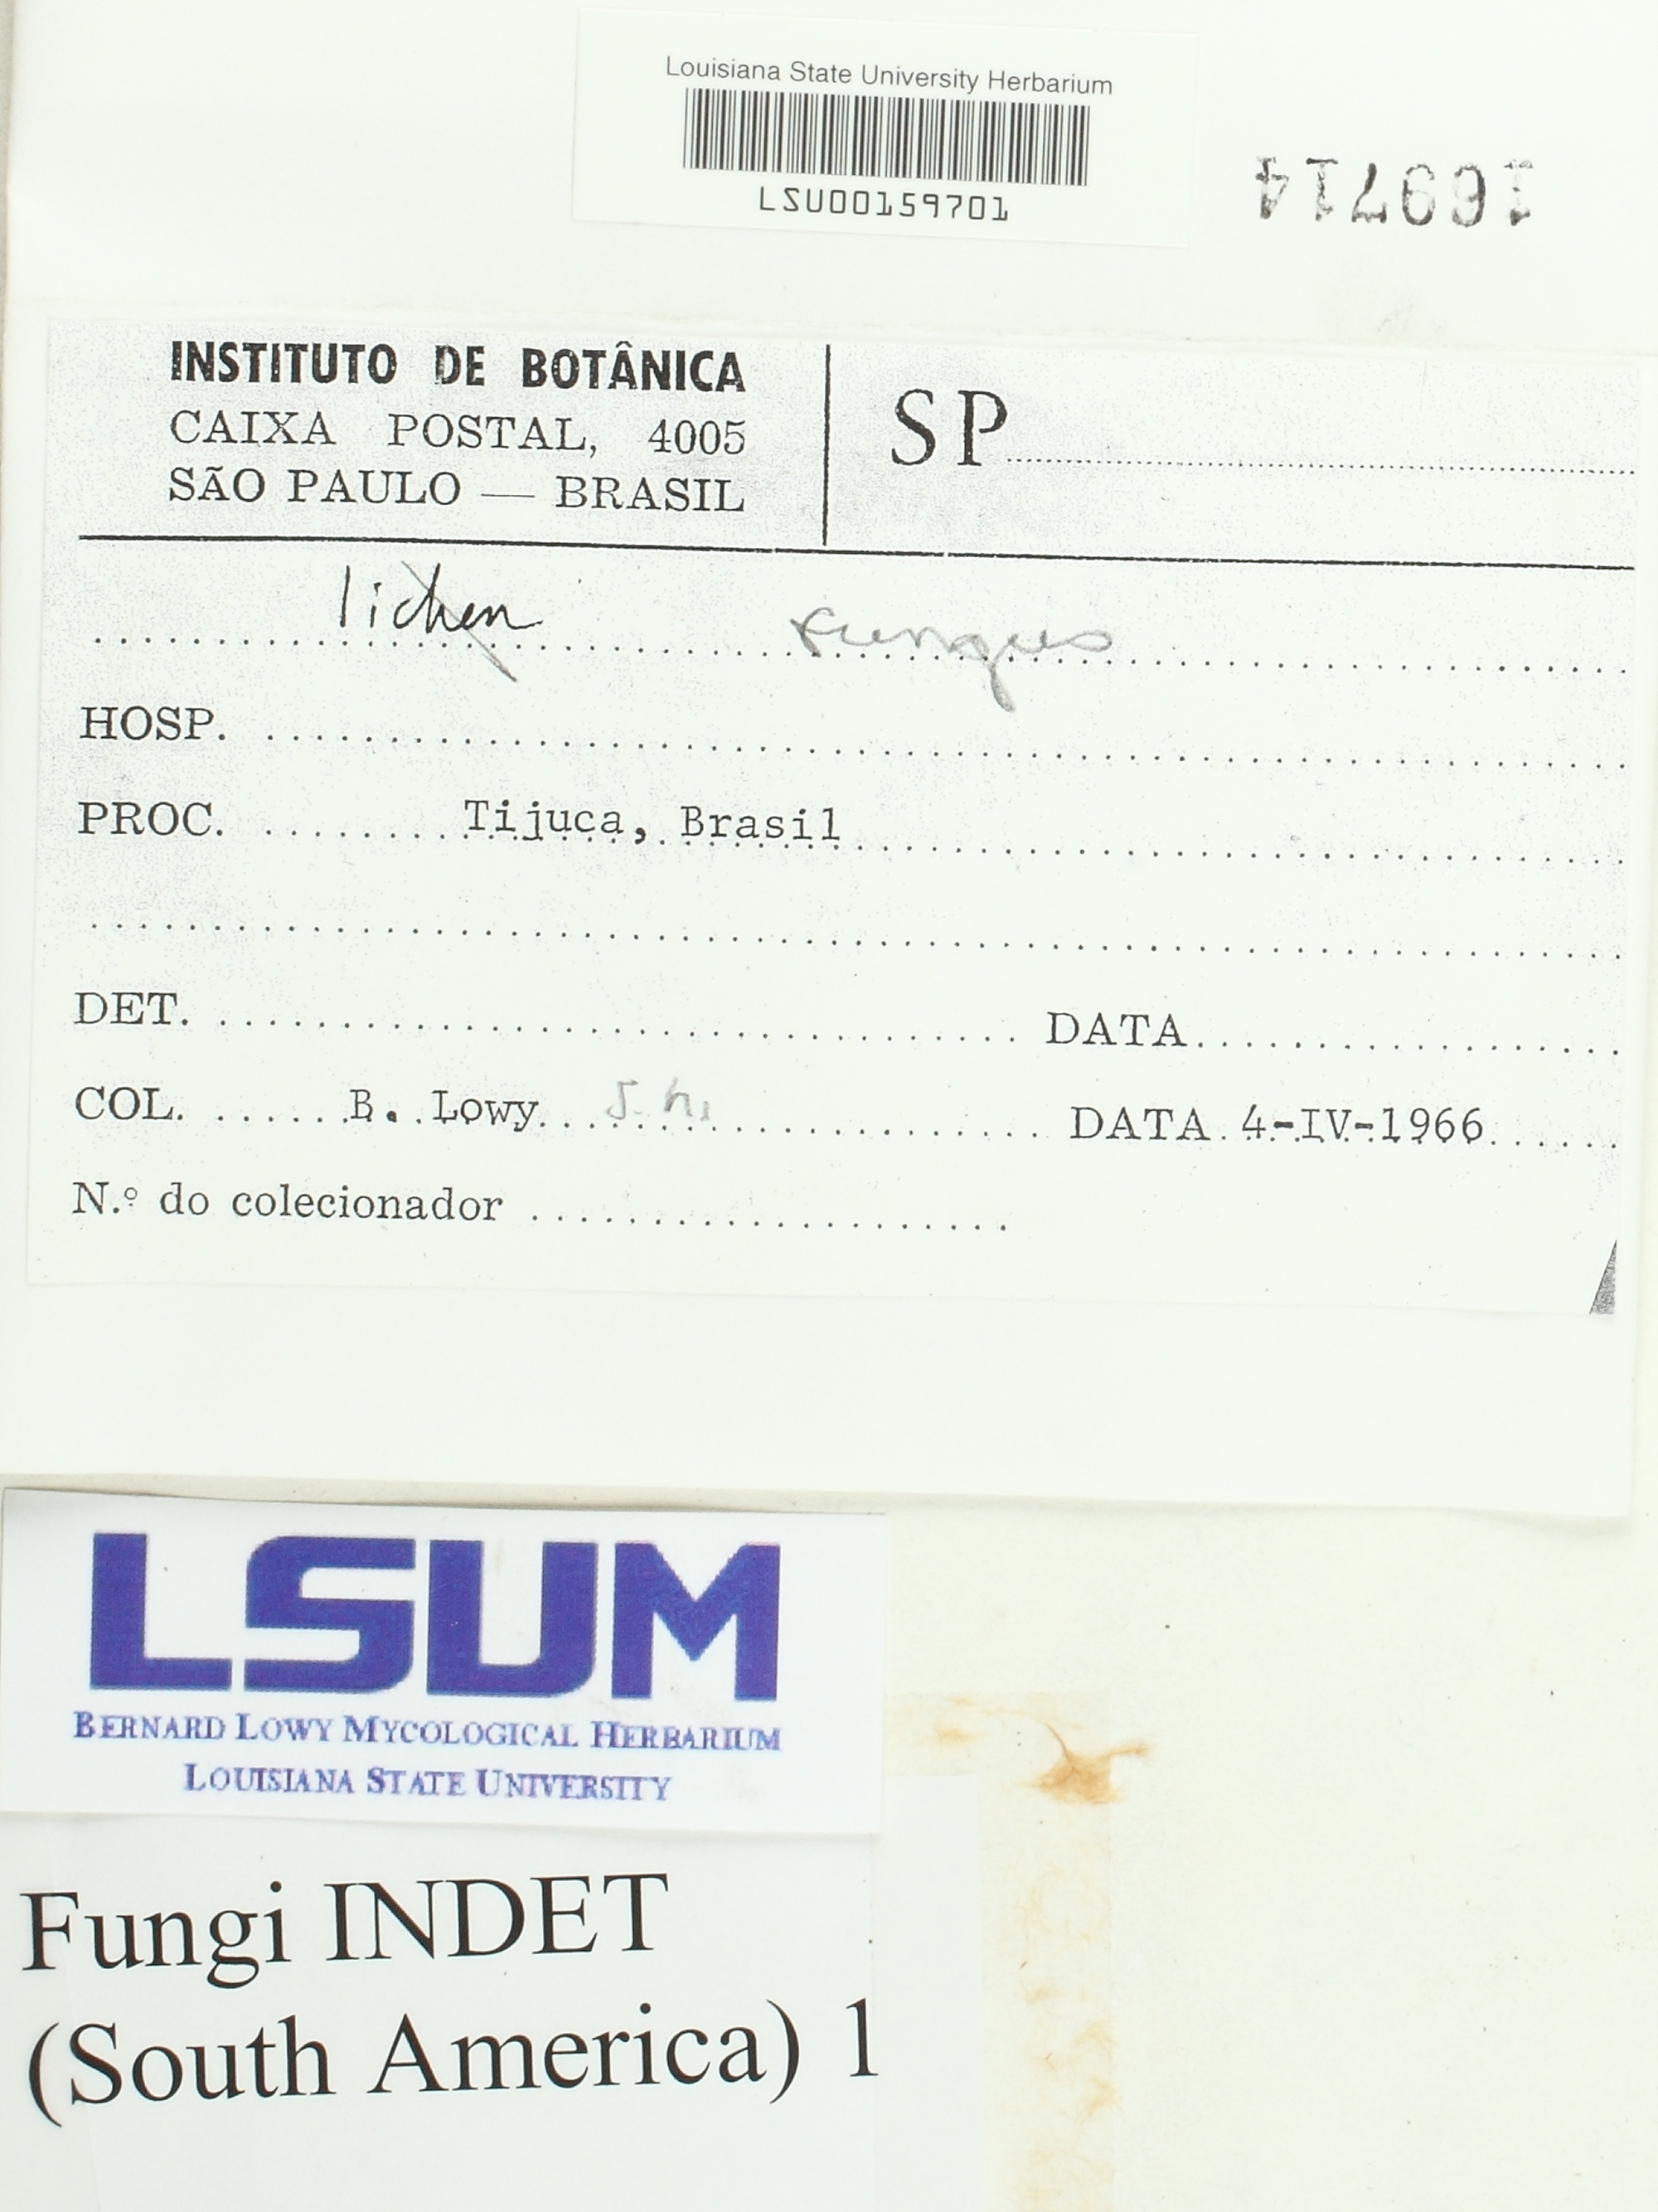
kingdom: Fungi
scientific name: Fungi
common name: Fungi
